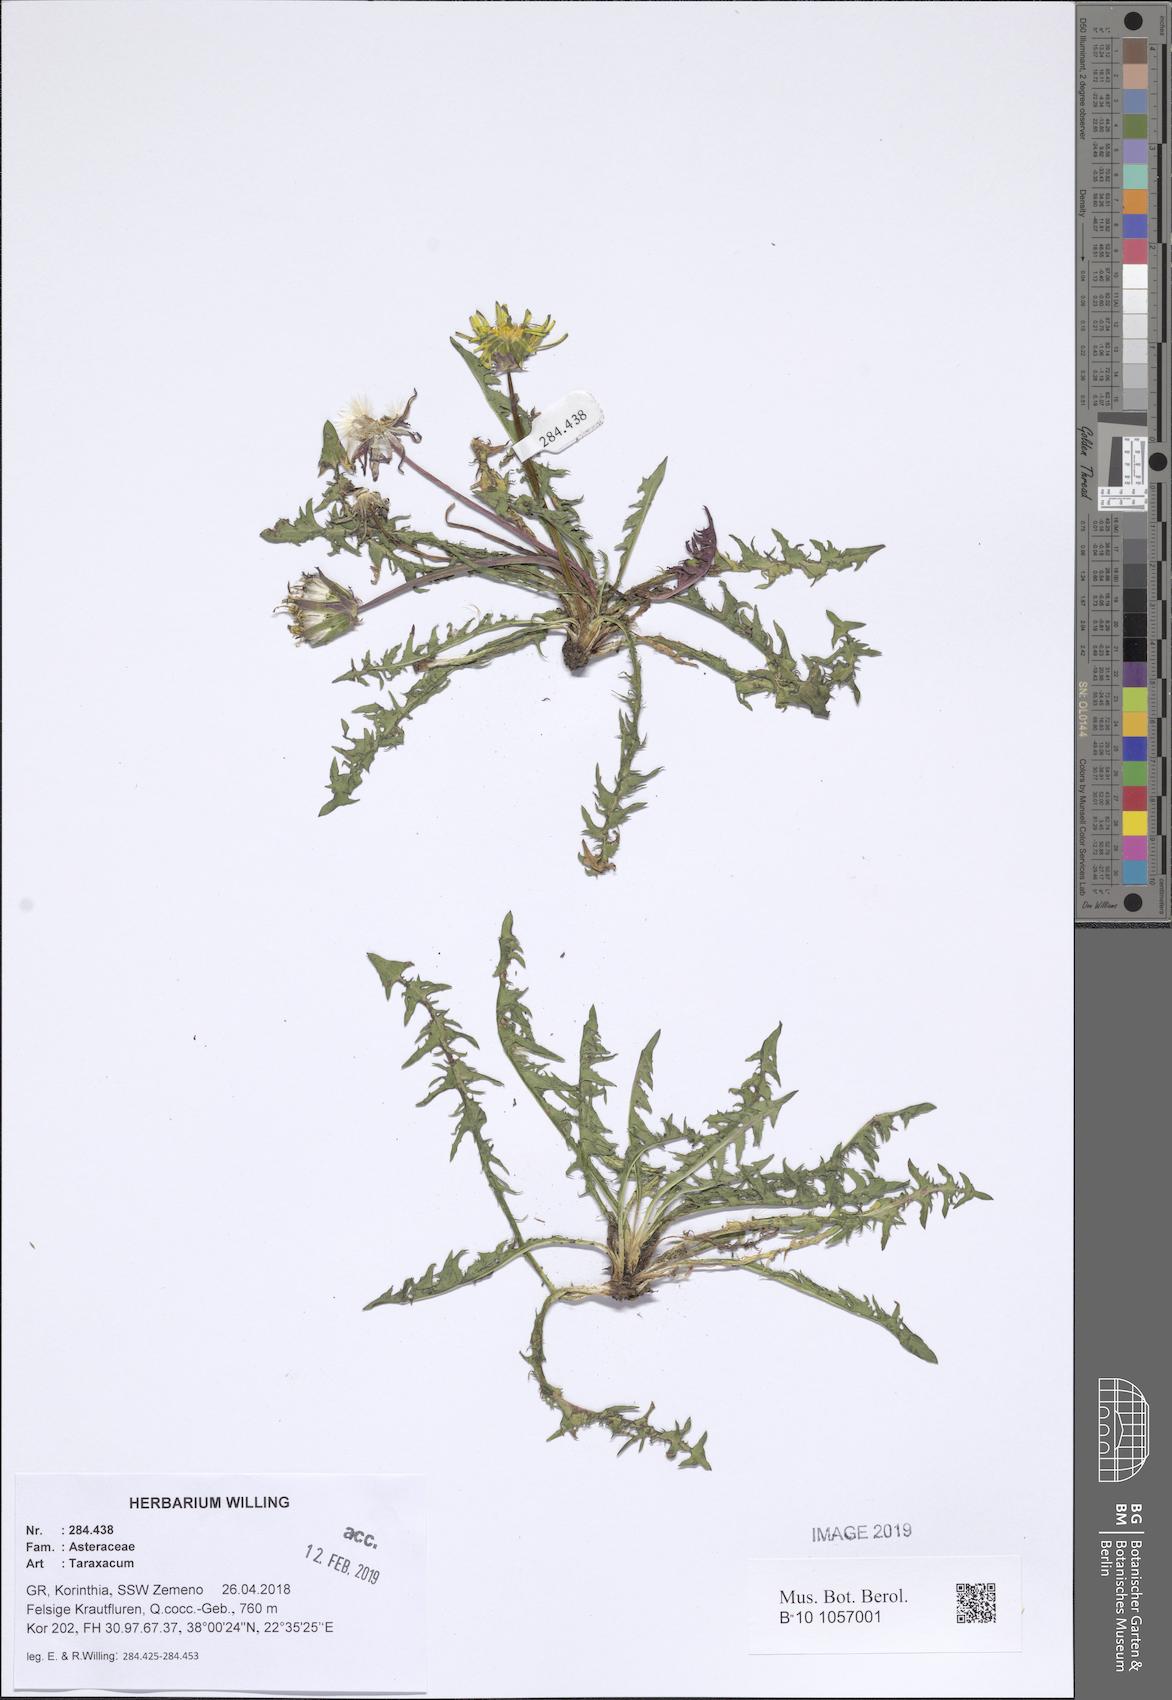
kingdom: Plantae
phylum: Tracheophyta
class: Magnoliopsida
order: Asterales
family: Asteraceae
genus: Taraxacum
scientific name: Taraxacum
